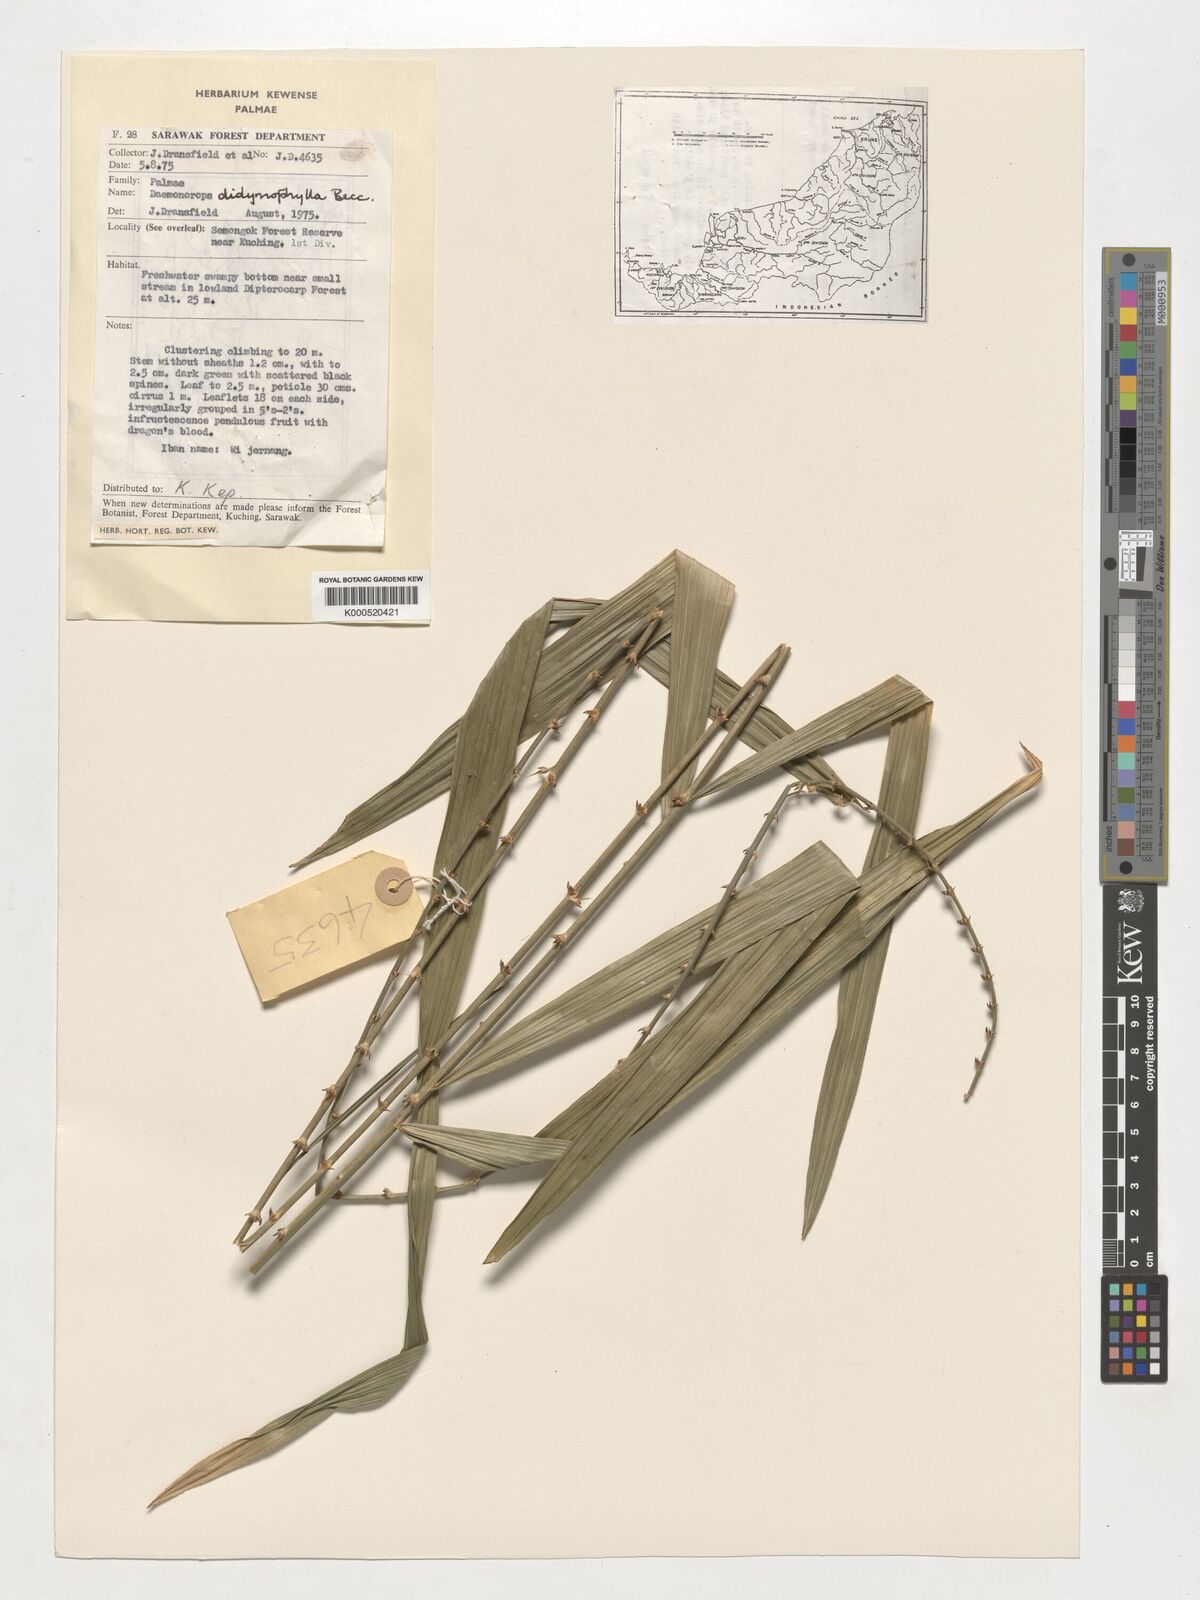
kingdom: Plantae
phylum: Tracheophyta
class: Liliopsida
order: Arecales
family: Arecaceae
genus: Calamus
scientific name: Calamus gracilipes
